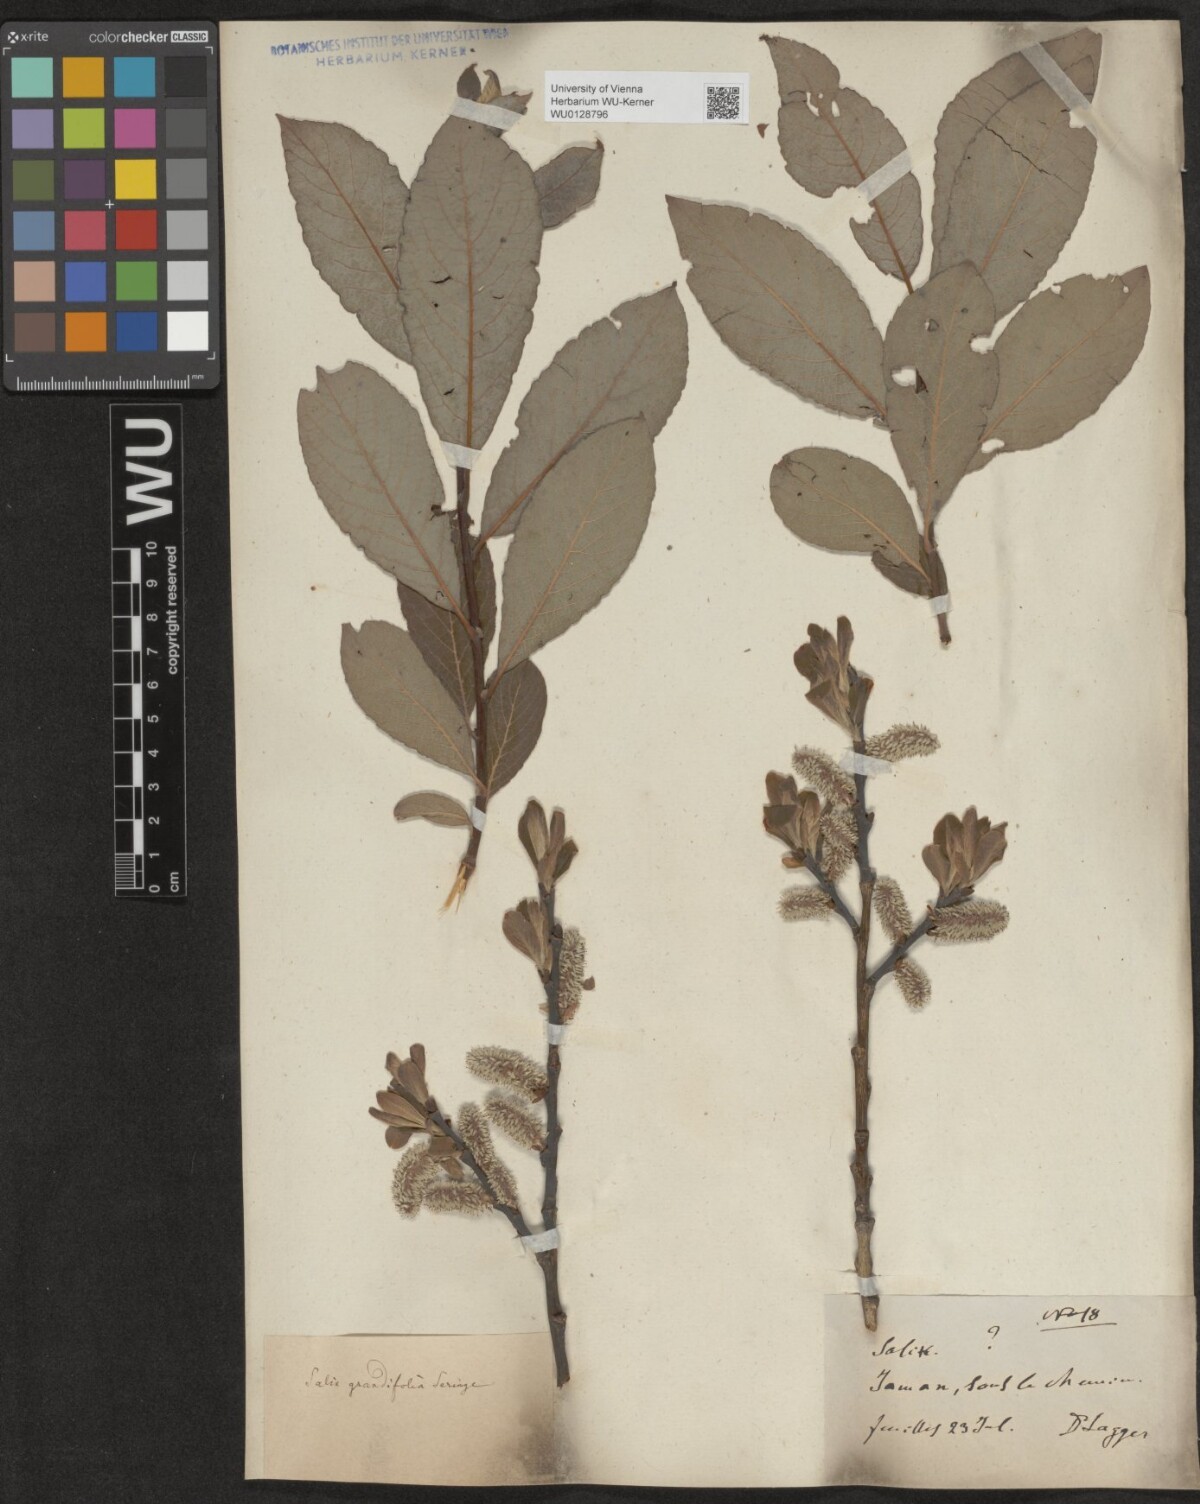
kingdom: Plantae
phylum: Tracheophyta
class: Magnoliopsida
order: Malpighiales
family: Salicaceae
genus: Salix
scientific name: Salix appendiculata
